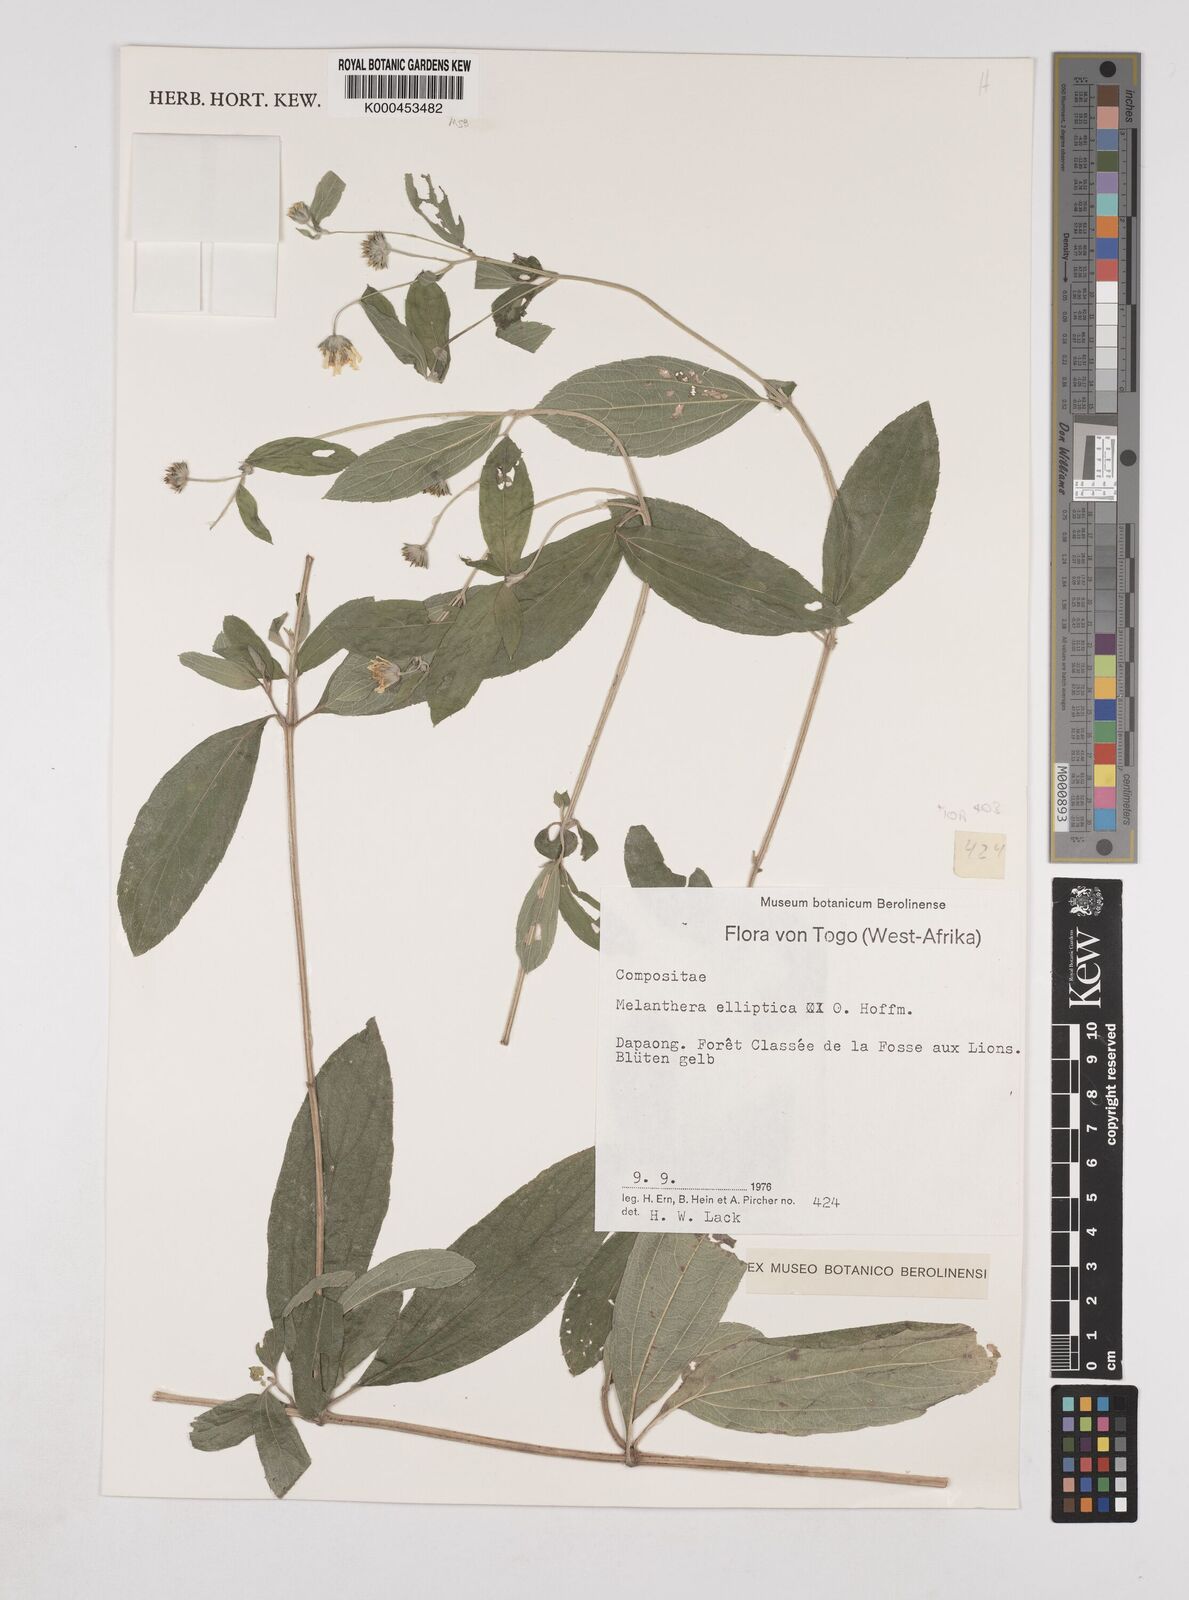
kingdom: Plantae
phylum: Tracheophyta
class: Magnoliopsida
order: Asterales
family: Asteraceae
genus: Lipotriche
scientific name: Lipotriche elliptica
